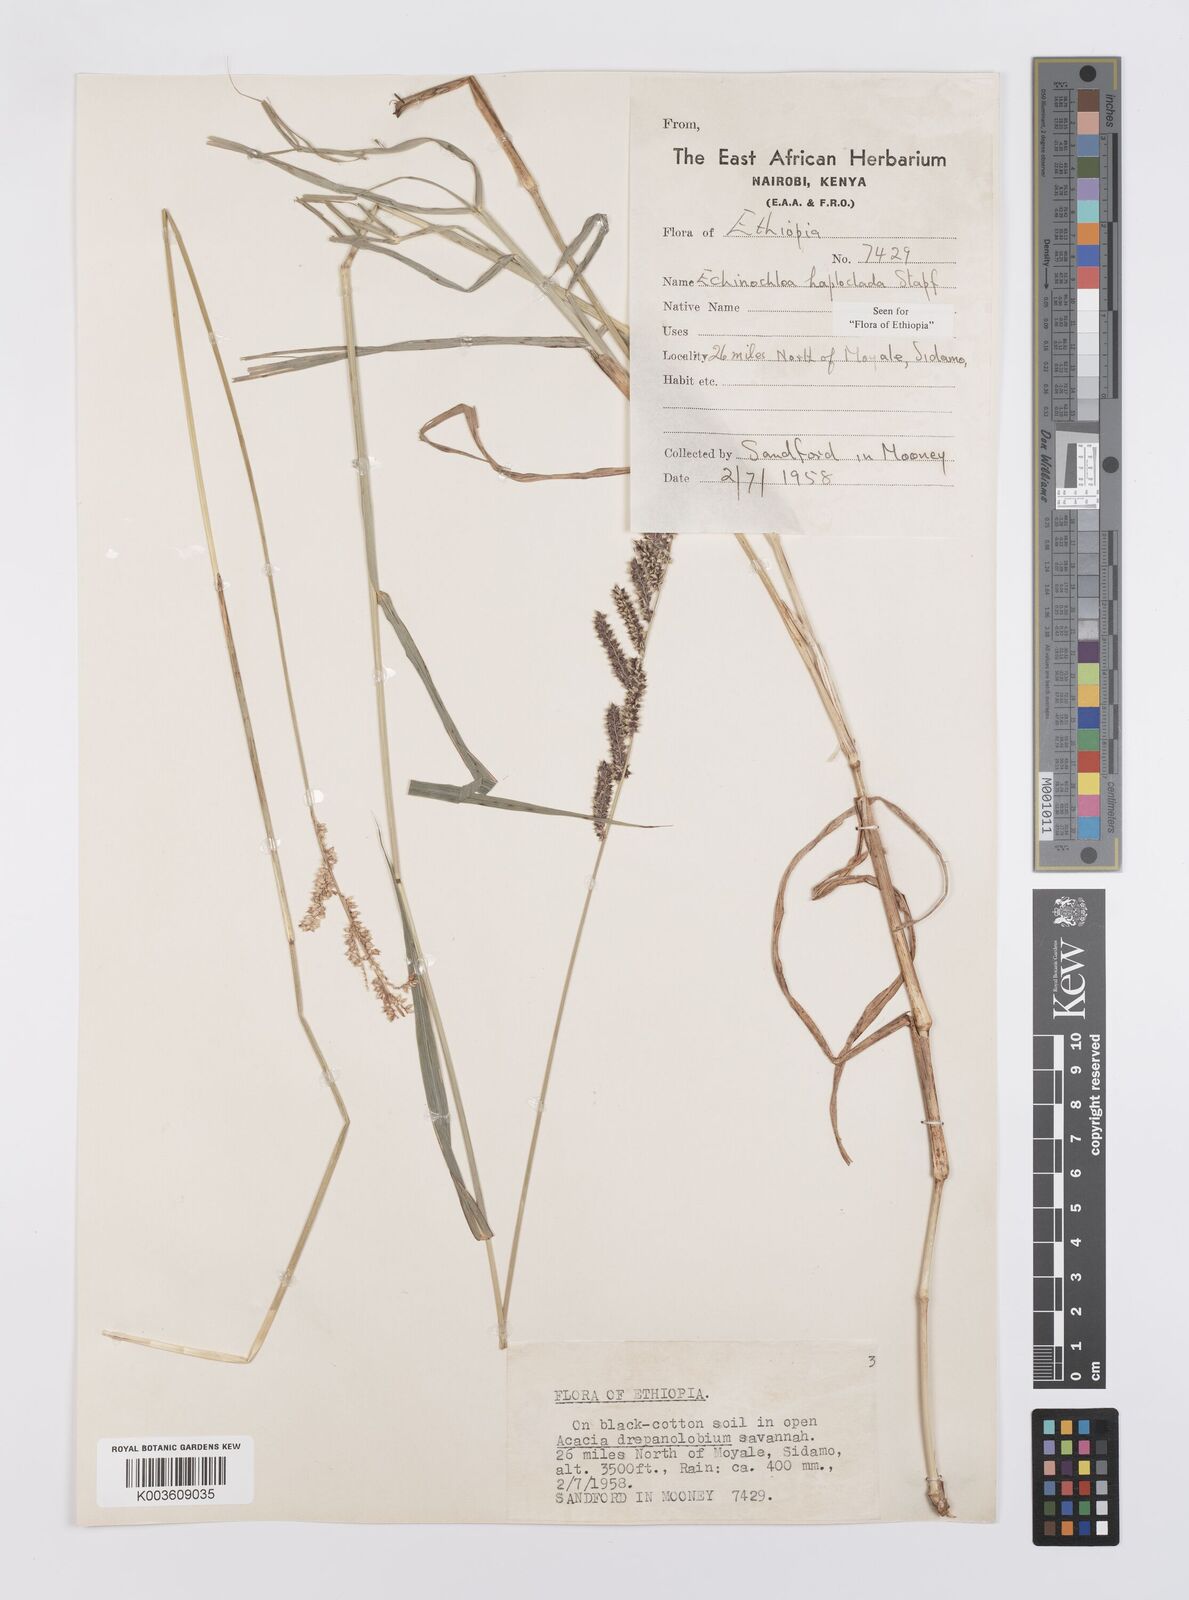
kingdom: Plantae
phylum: Tracheophyta
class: Liliopsida
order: Poales
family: Poaceae
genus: Echinochloa
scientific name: Echinochloa haploclada
